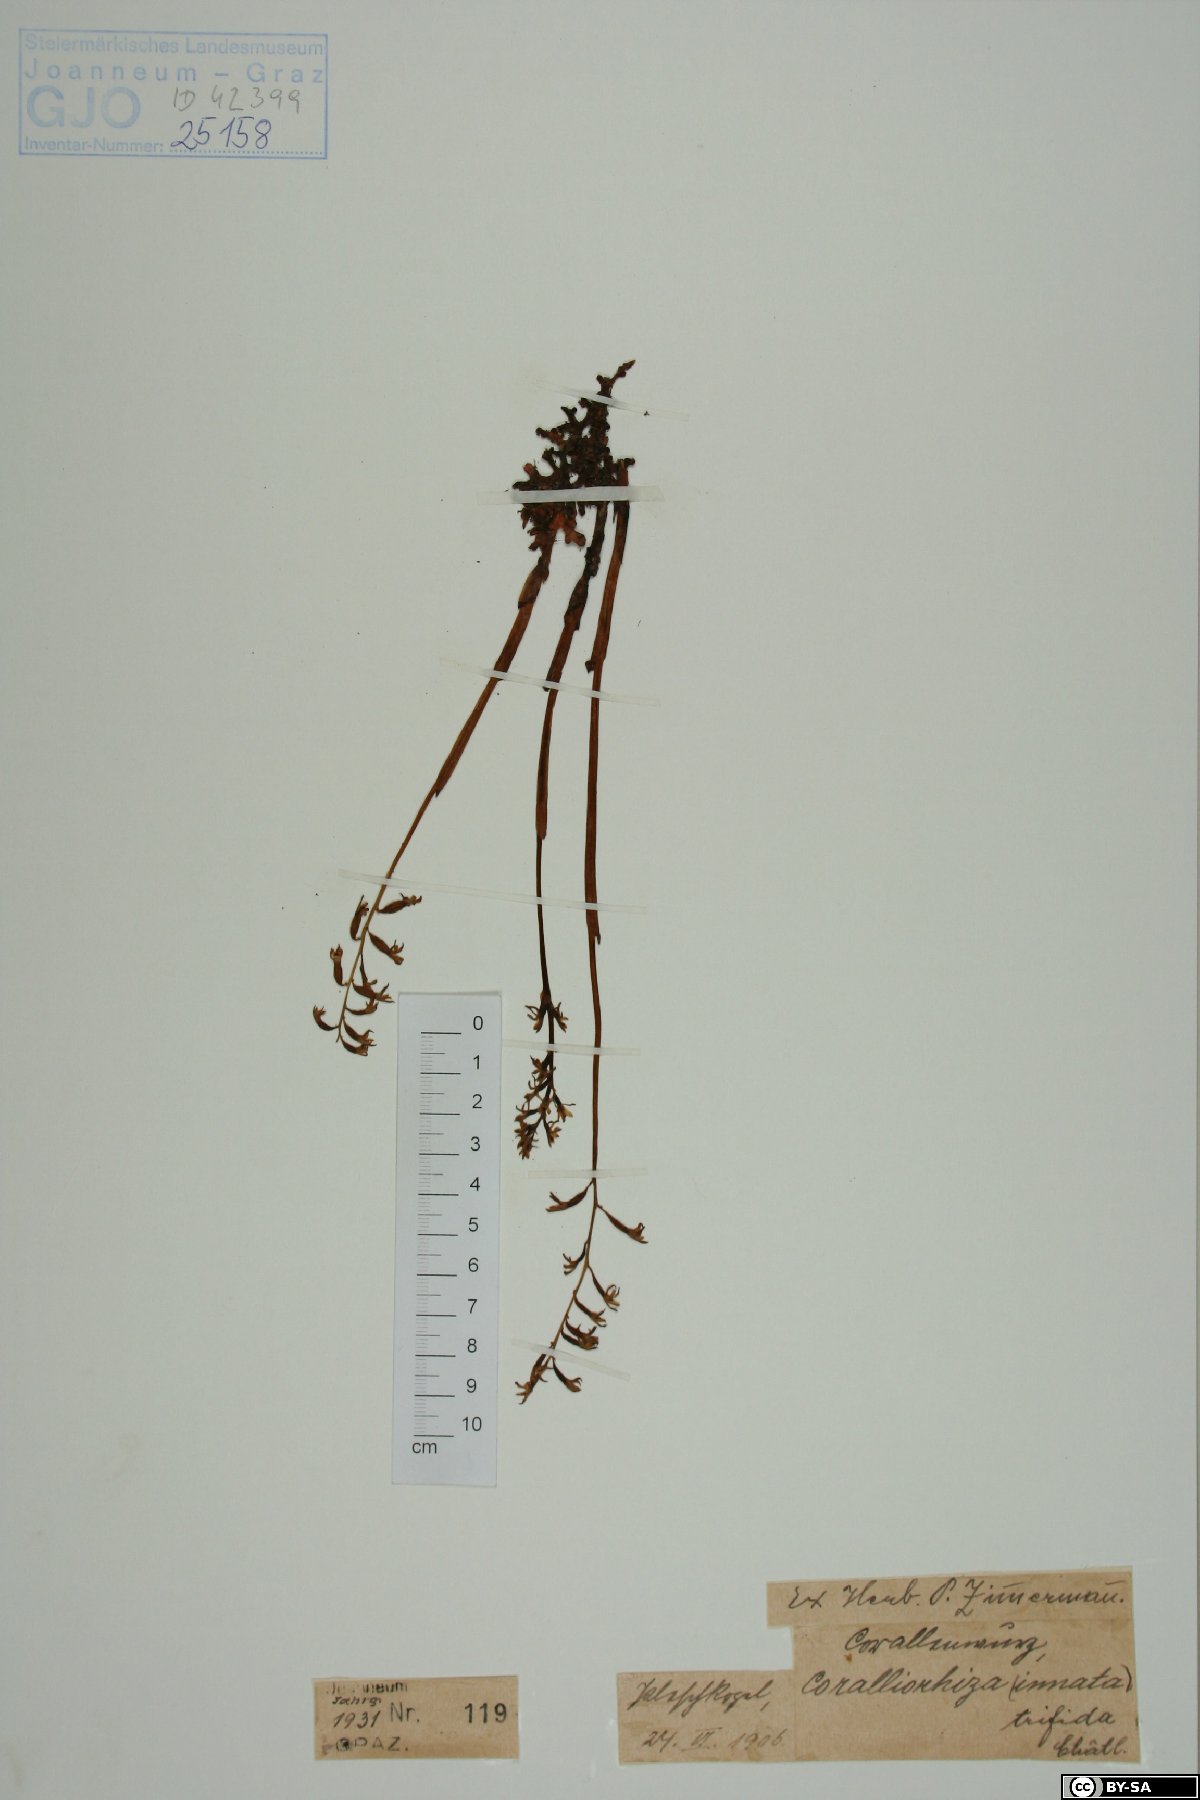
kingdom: Plantae
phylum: Tracheophyta
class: Liliopsida
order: Asparagales
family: Orchidaceae
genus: Corallorhiza
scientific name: Corallorhiza trifida
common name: Yellow coralroot
